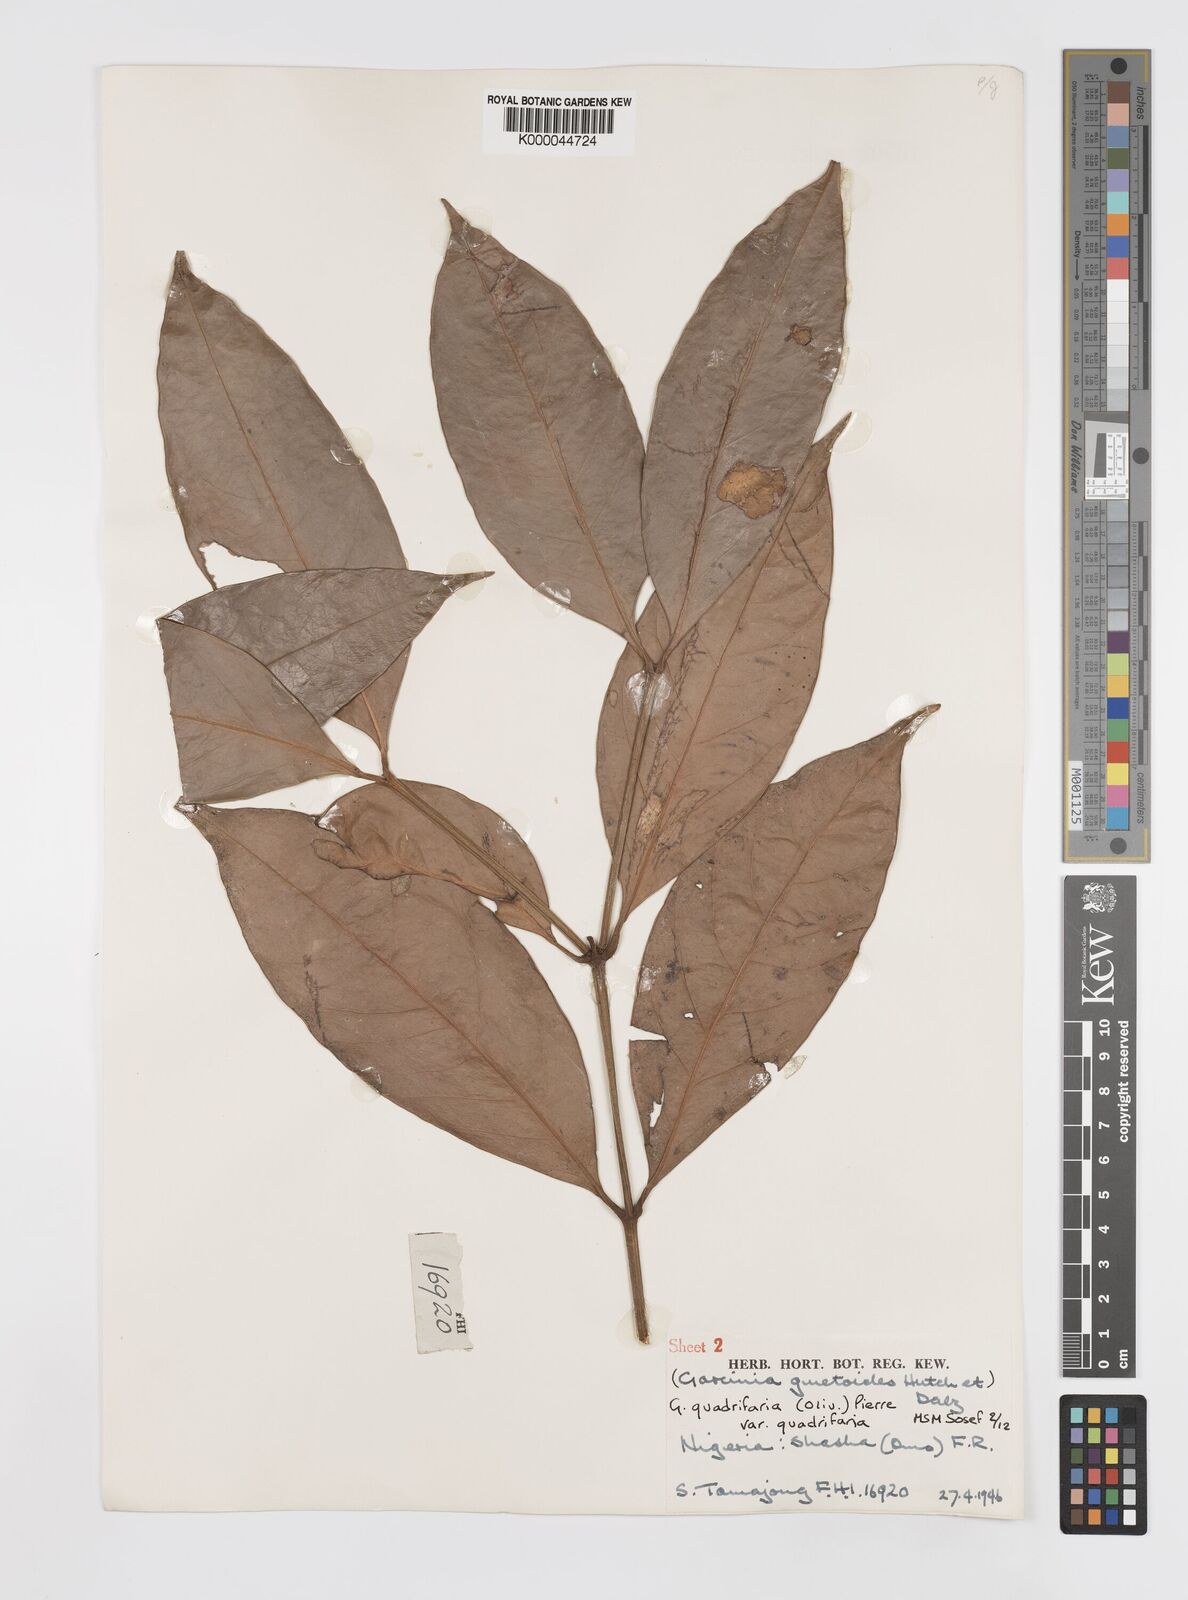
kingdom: Plantae
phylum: Tracheophyta
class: Magnoliopsida
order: Malpighiales
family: Clusiaceae
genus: Garcinia
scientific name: Garcinia gnetoides
